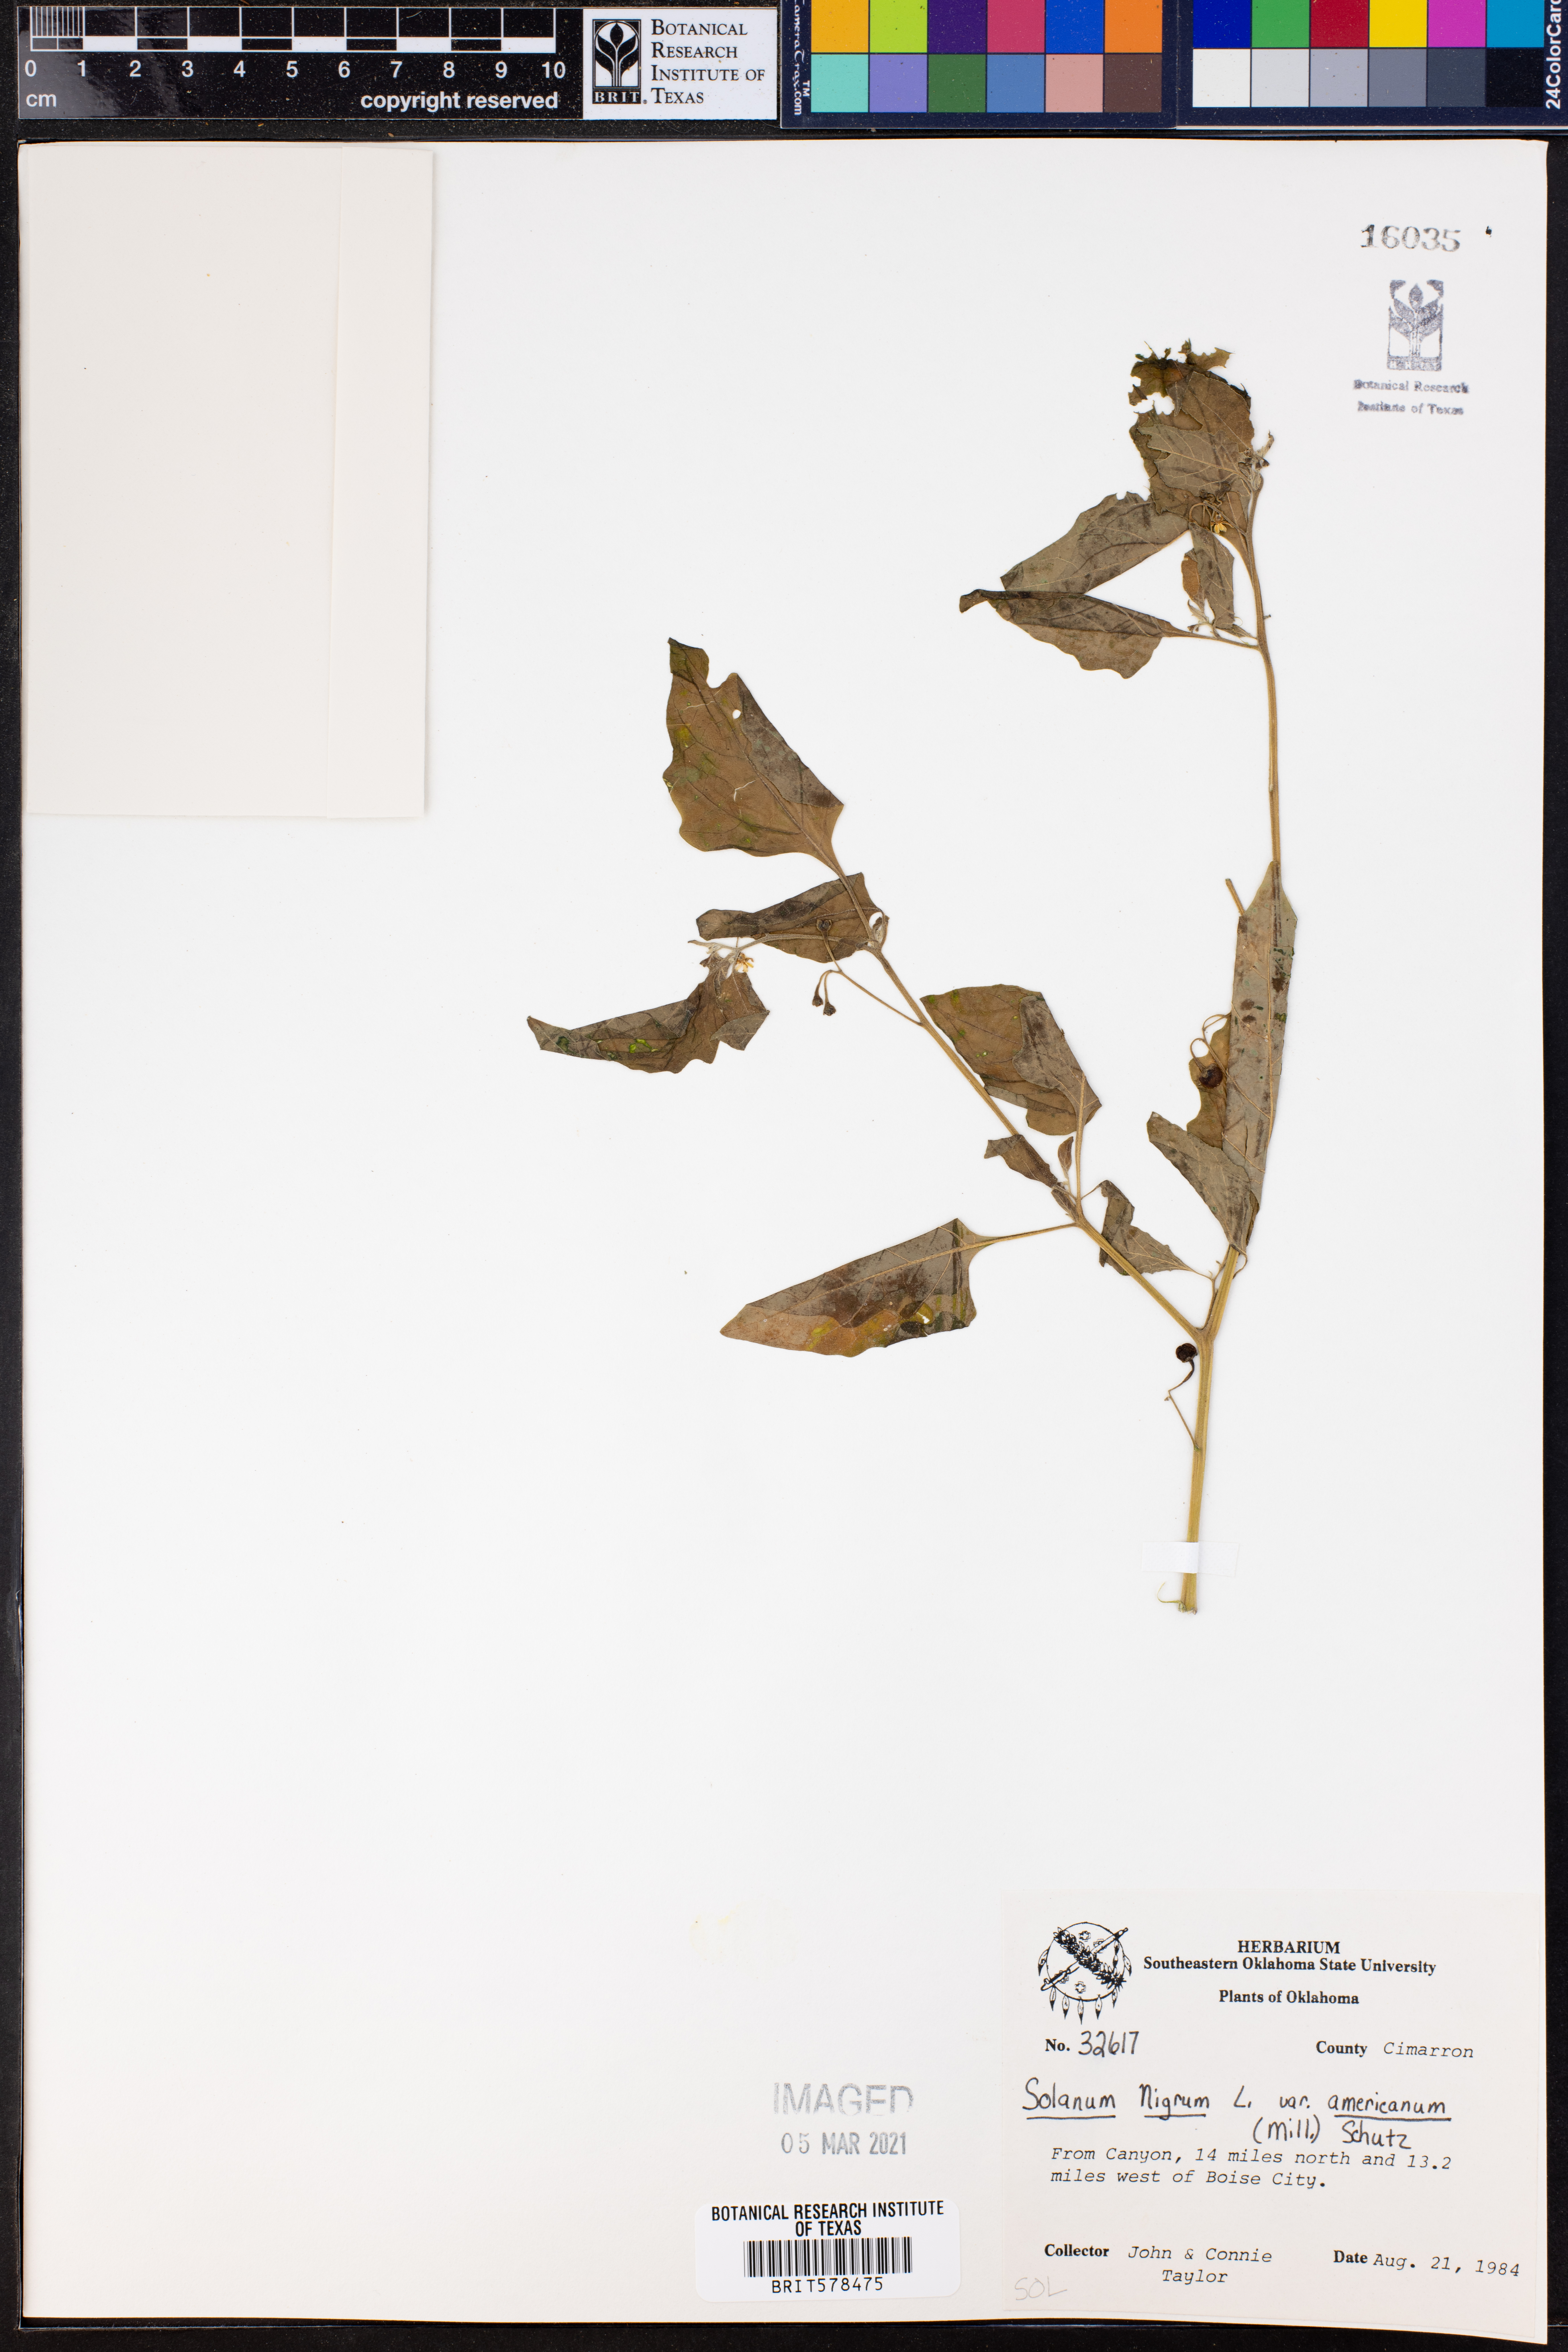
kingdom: Plantae
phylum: Tracheophyta
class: Magnoliopsida
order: Solanales
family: Solanaceae
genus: Solanum
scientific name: Solanum americanum
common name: American black nightshade
